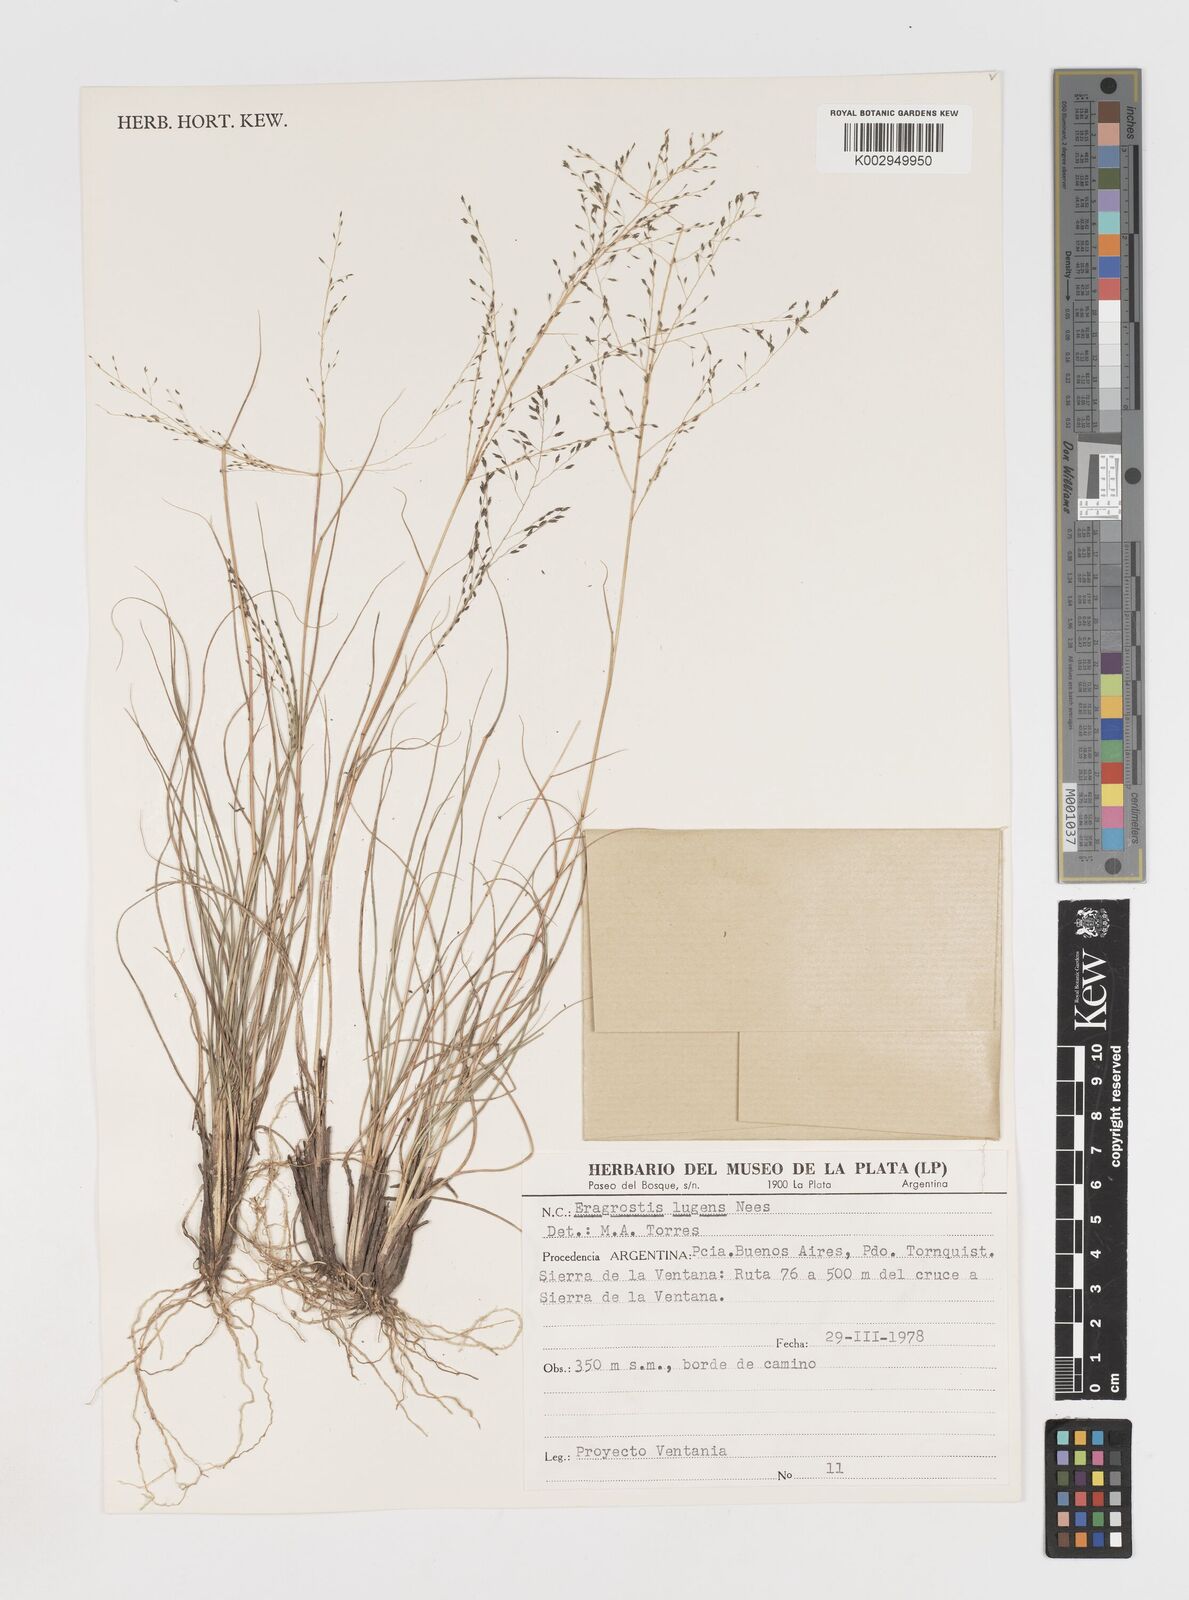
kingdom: Plantae
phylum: Tracheophyta
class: Liliopsida
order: Poales
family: Poaceae
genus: Eragrostis
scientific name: Eragrostis
